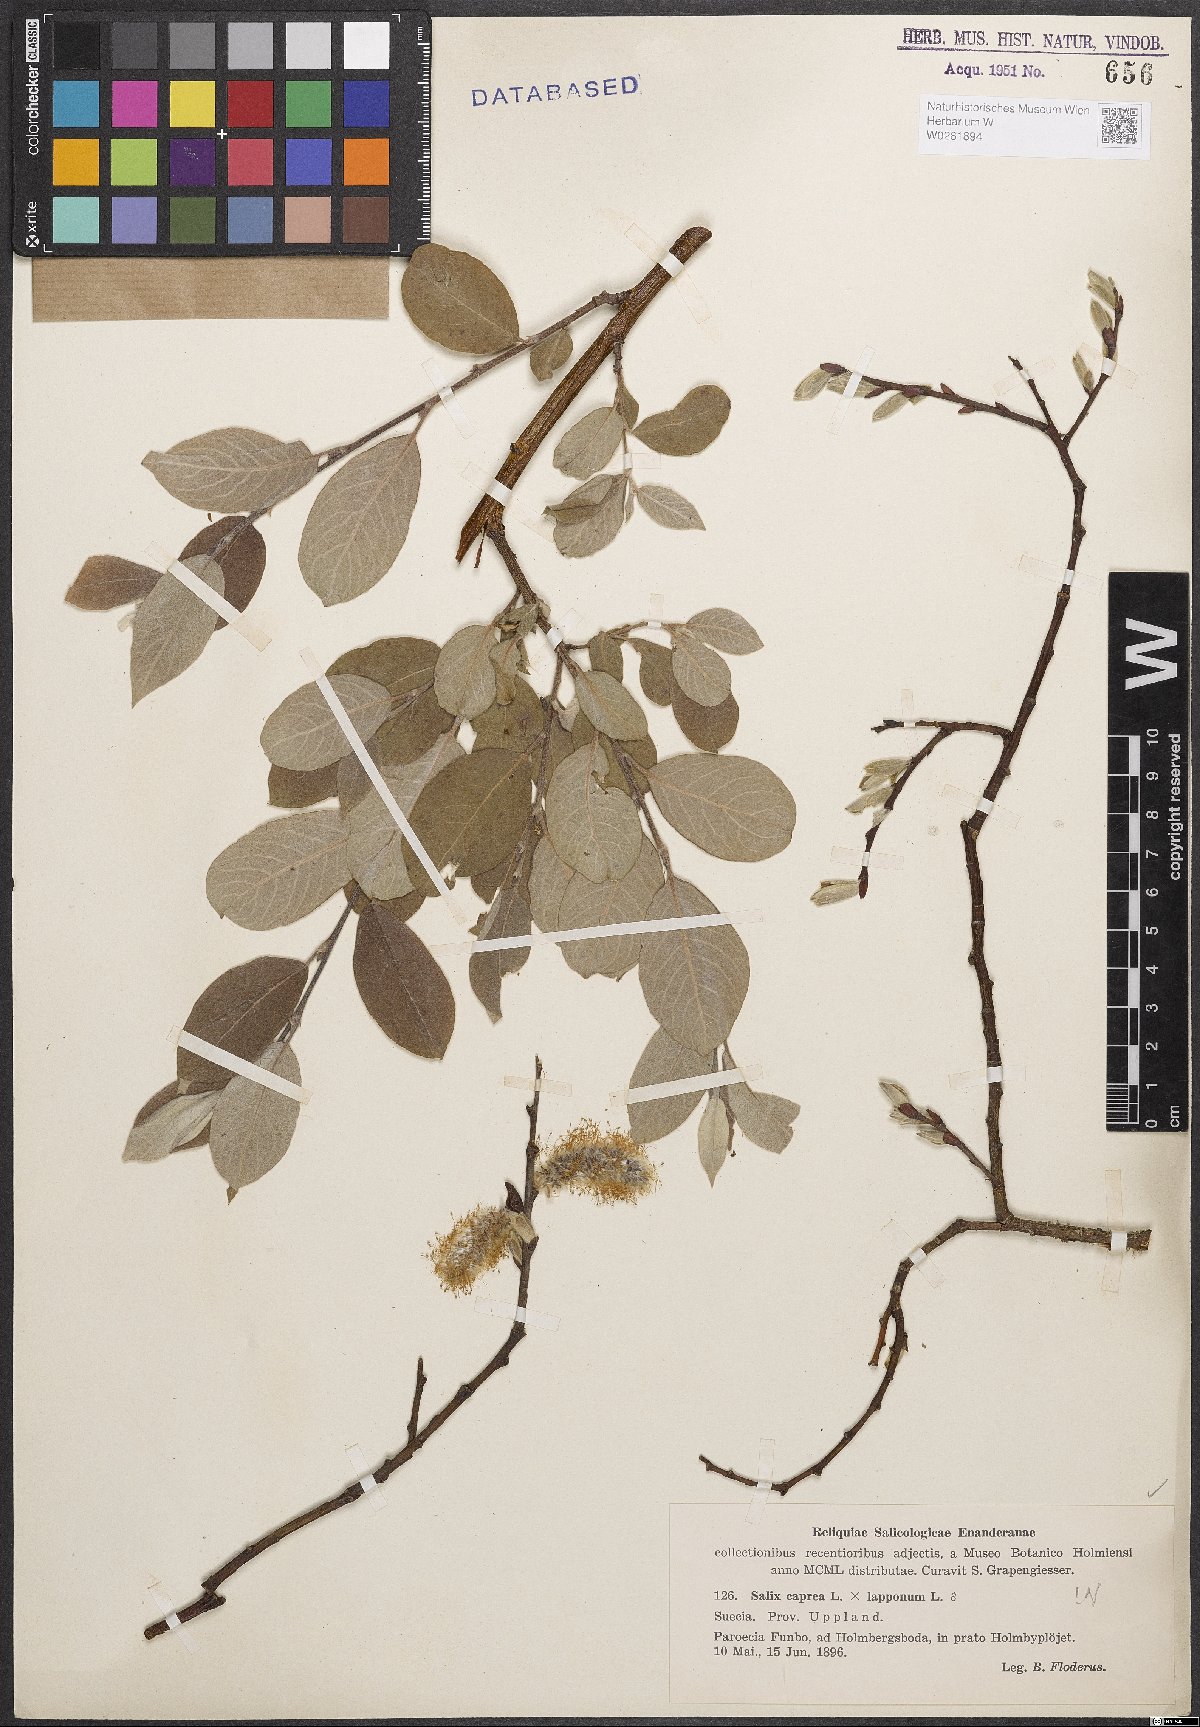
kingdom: Plantae
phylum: Tracheophyta
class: Magnoliopsida
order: Malpighiales
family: Salicaceae
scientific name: Salicaceae
